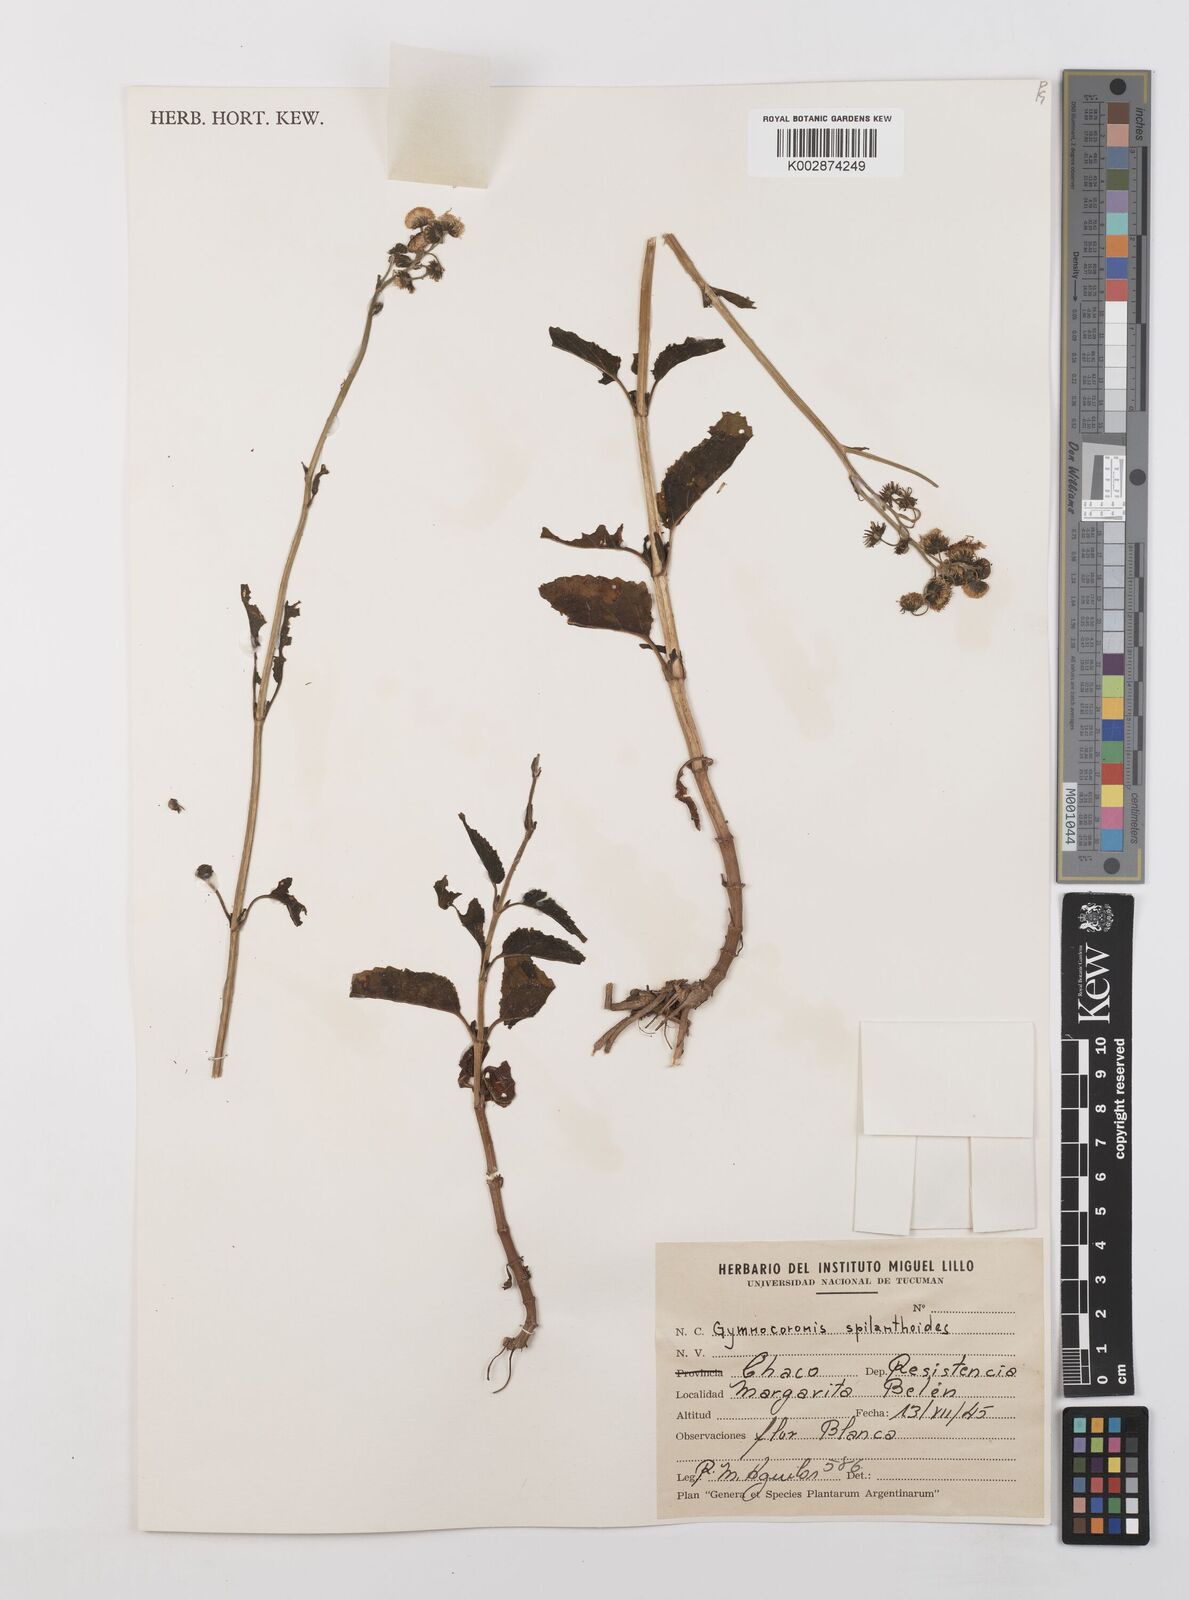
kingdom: Plantae
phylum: Tracheophyta
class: Magnoliopsida
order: Asterales
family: Asteraceae
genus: Gymnocoronis
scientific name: Gymnocoronis spilanthoides
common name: Senegal teaplant
